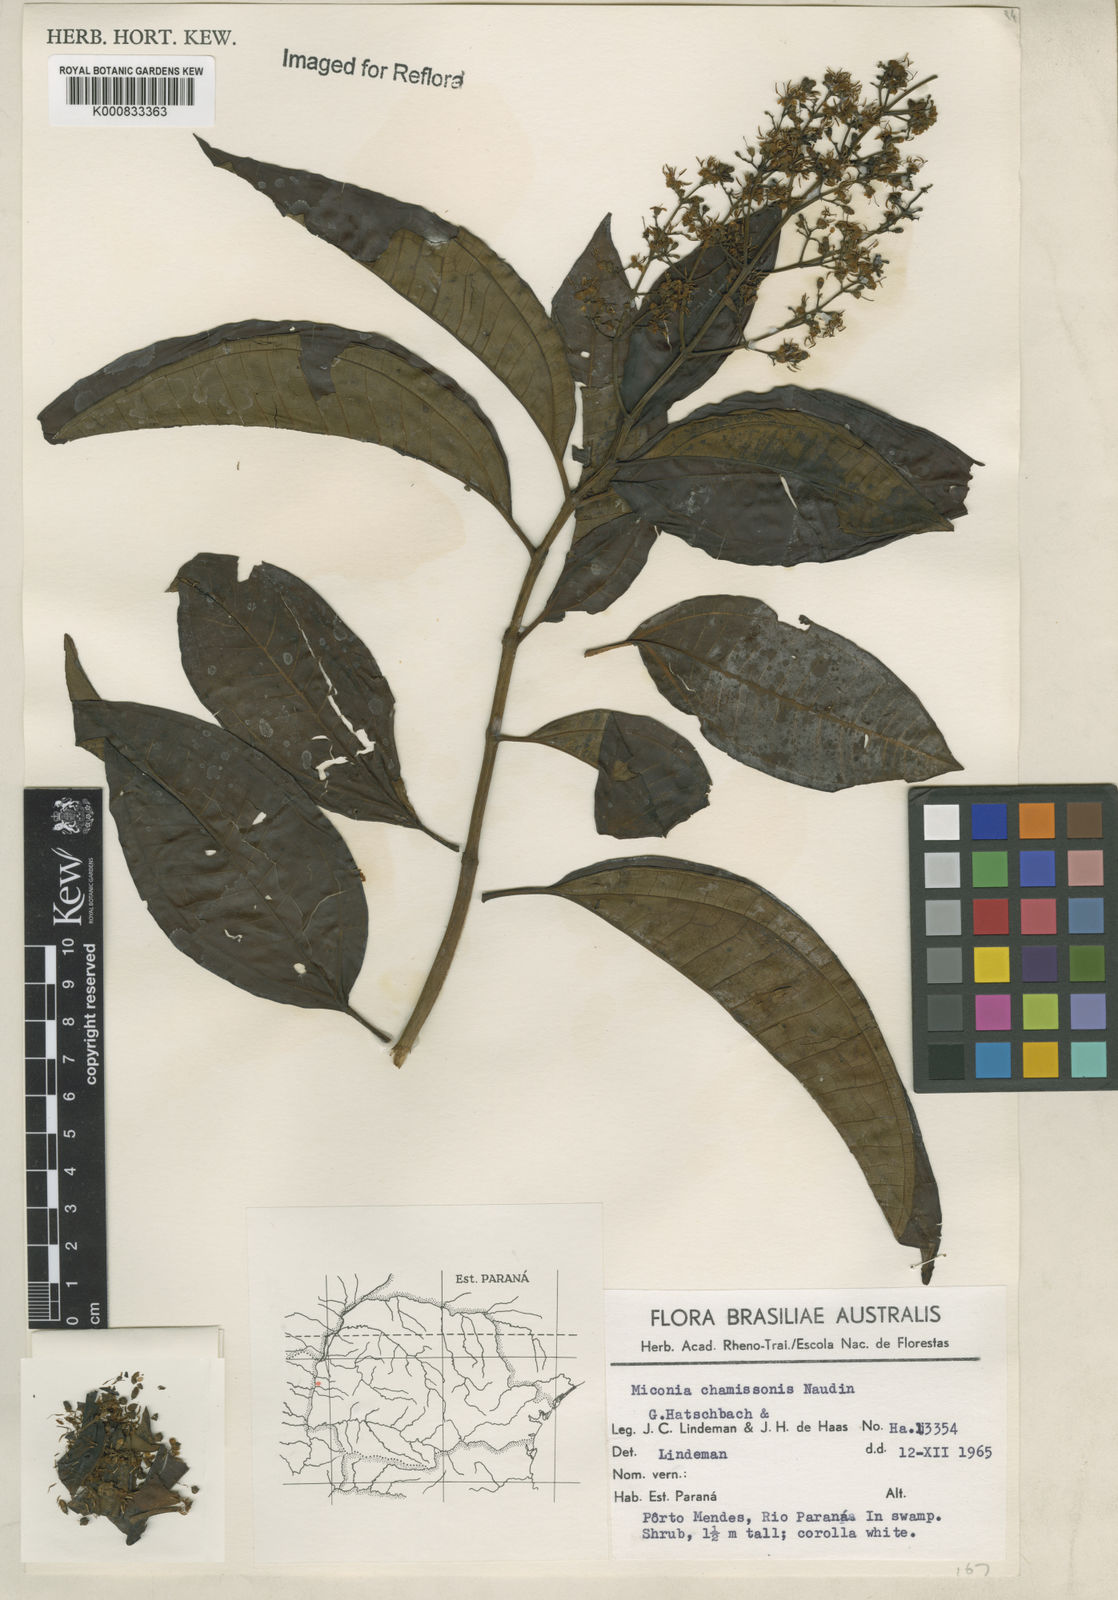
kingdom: Plantae
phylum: Tracheophyta
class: Magnoliopsida
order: Myrtales
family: Melastomataceae
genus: Miconia
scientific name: Miconia chamissois
